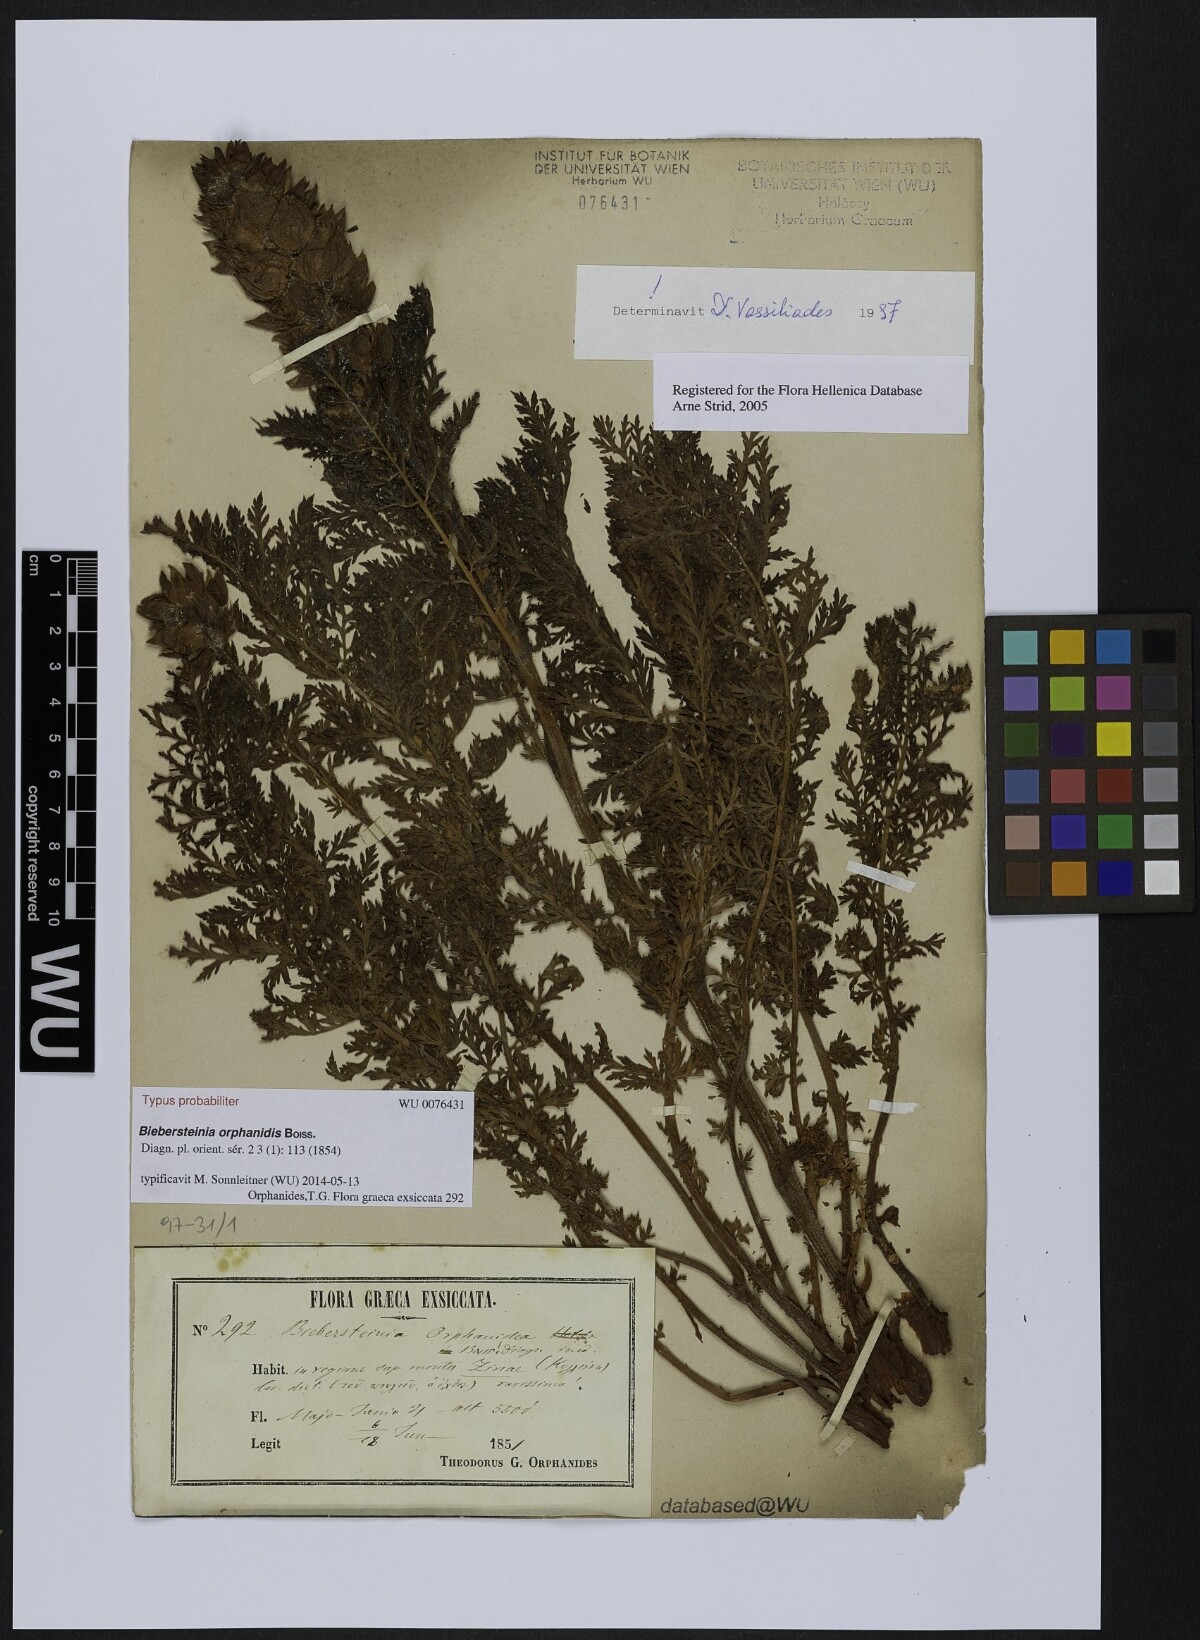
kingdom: Plantae
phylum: Tracheophyta
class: Magnoliopsida
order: Sapindales
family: Biebersteiniaceae
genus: Biebersteinia
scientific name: Biebersteinia orphanidis
